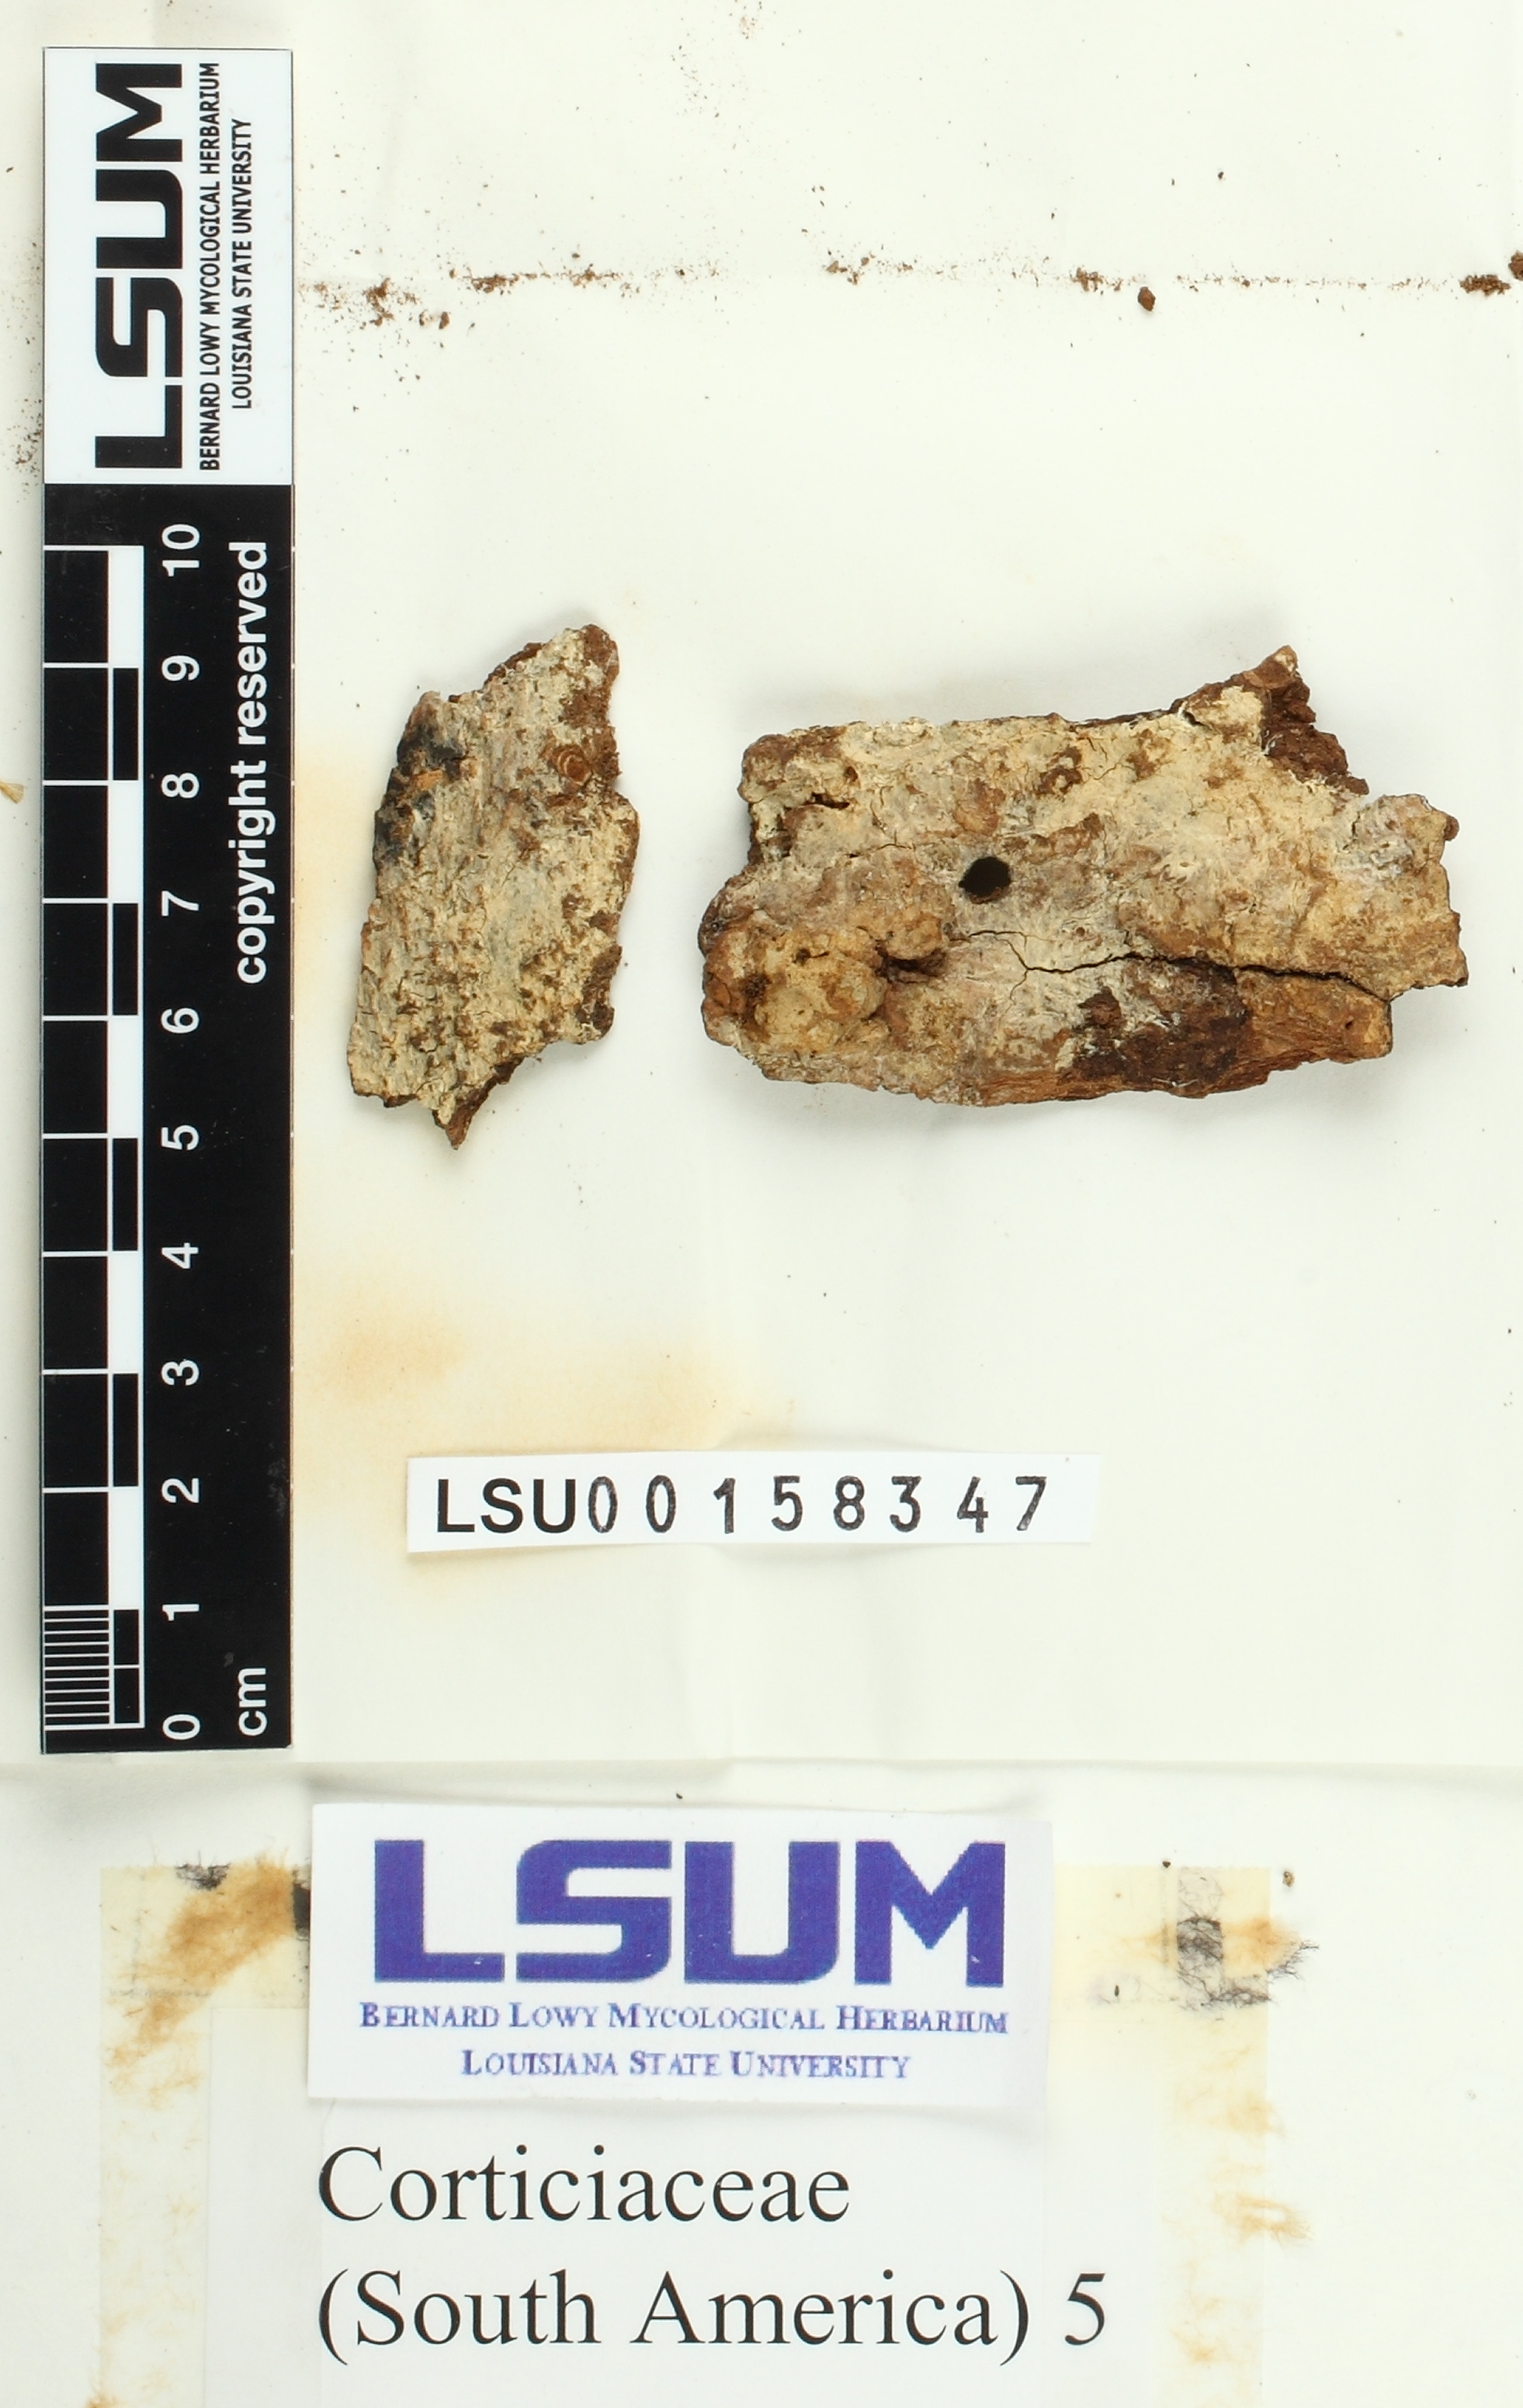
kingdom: Fungi
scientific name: Fungi
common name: Fungi
